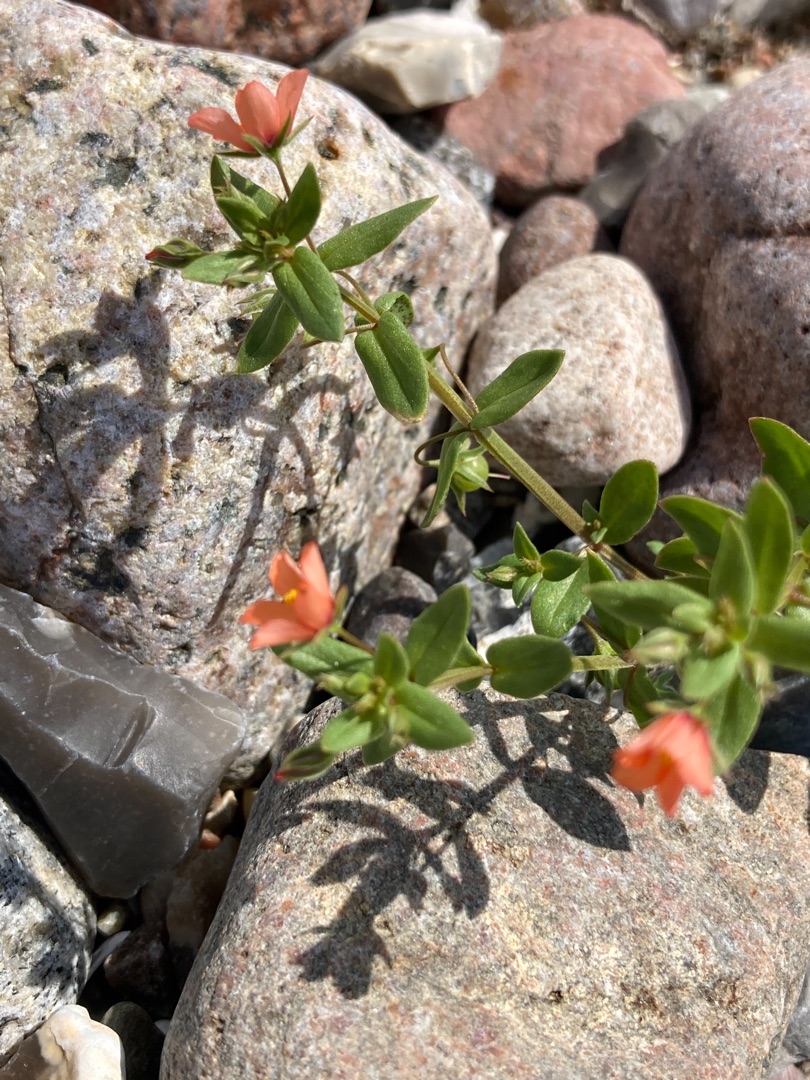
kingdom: Plantae
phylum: Tracheophyta
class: Magnoliopsida
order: Ericales
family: Primulaceae
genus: Lysimachia
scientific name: Lysimachia arvensis
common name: Rød arve
